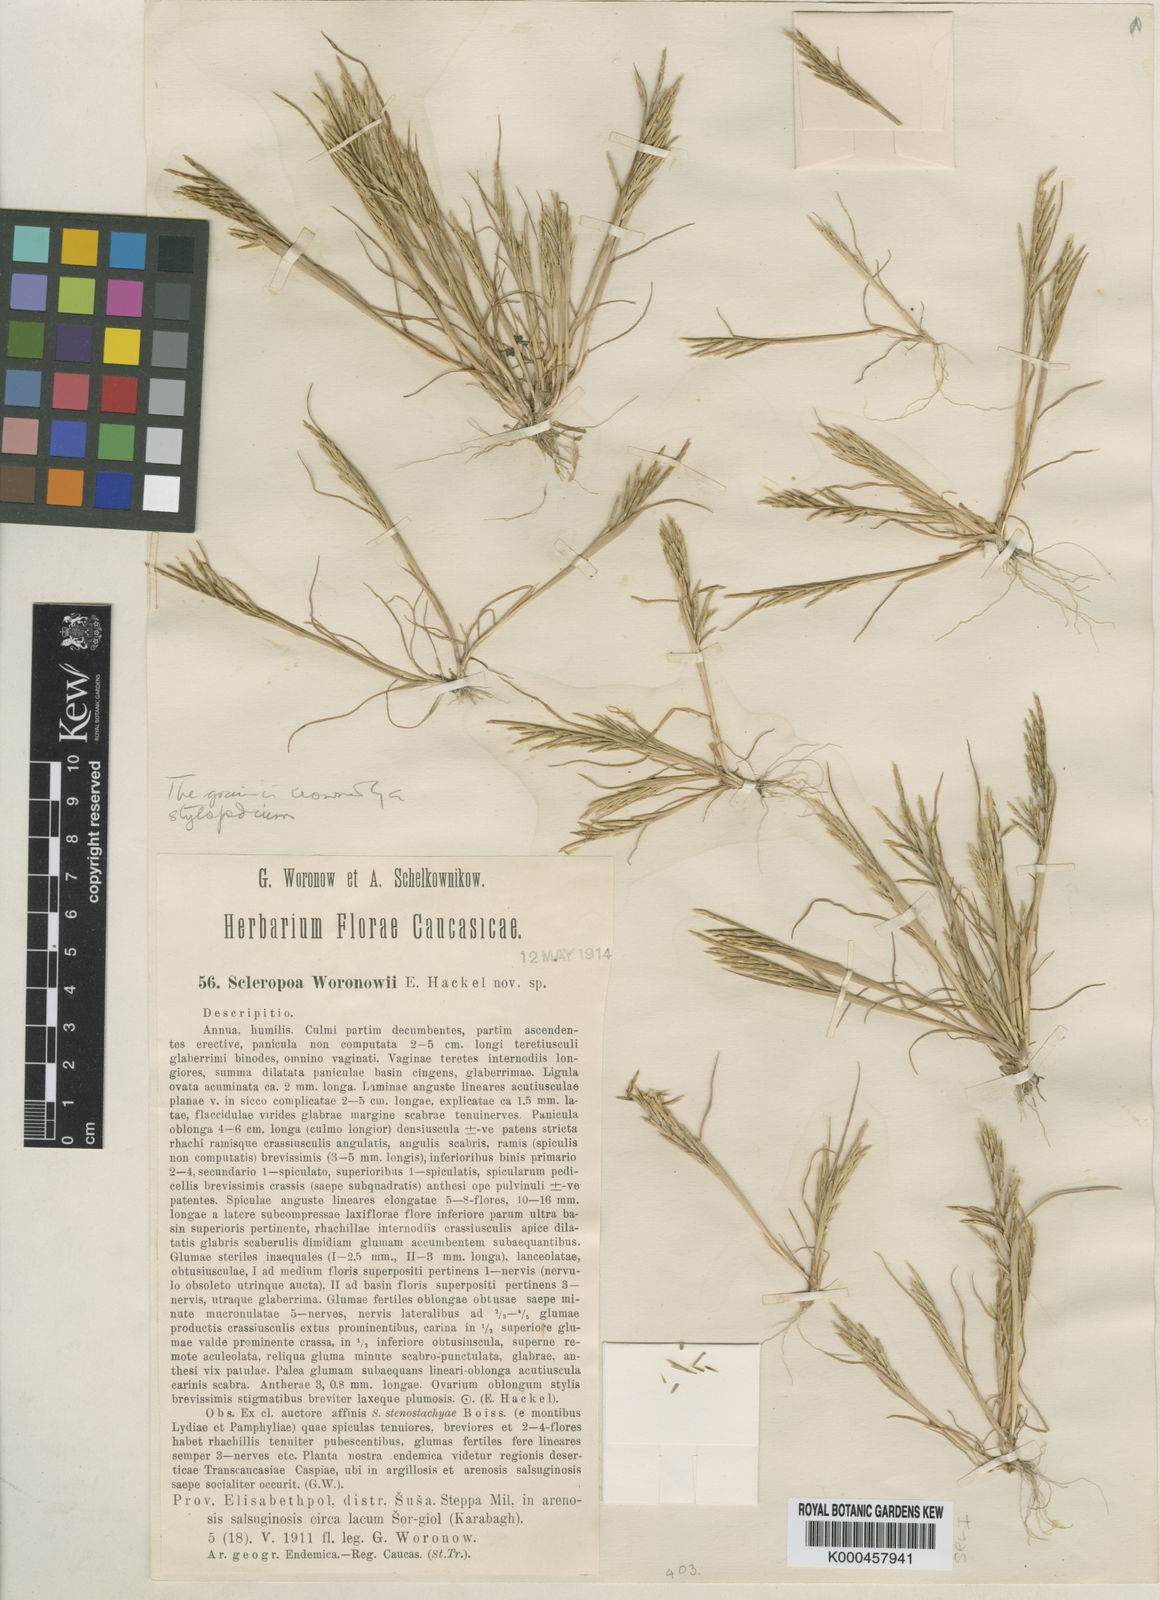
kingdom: Plantae
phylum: Tracheophyta
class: Liliopsida
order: Poales
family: Poaceae
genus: Sclerochloa
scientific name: Sclerochloa
